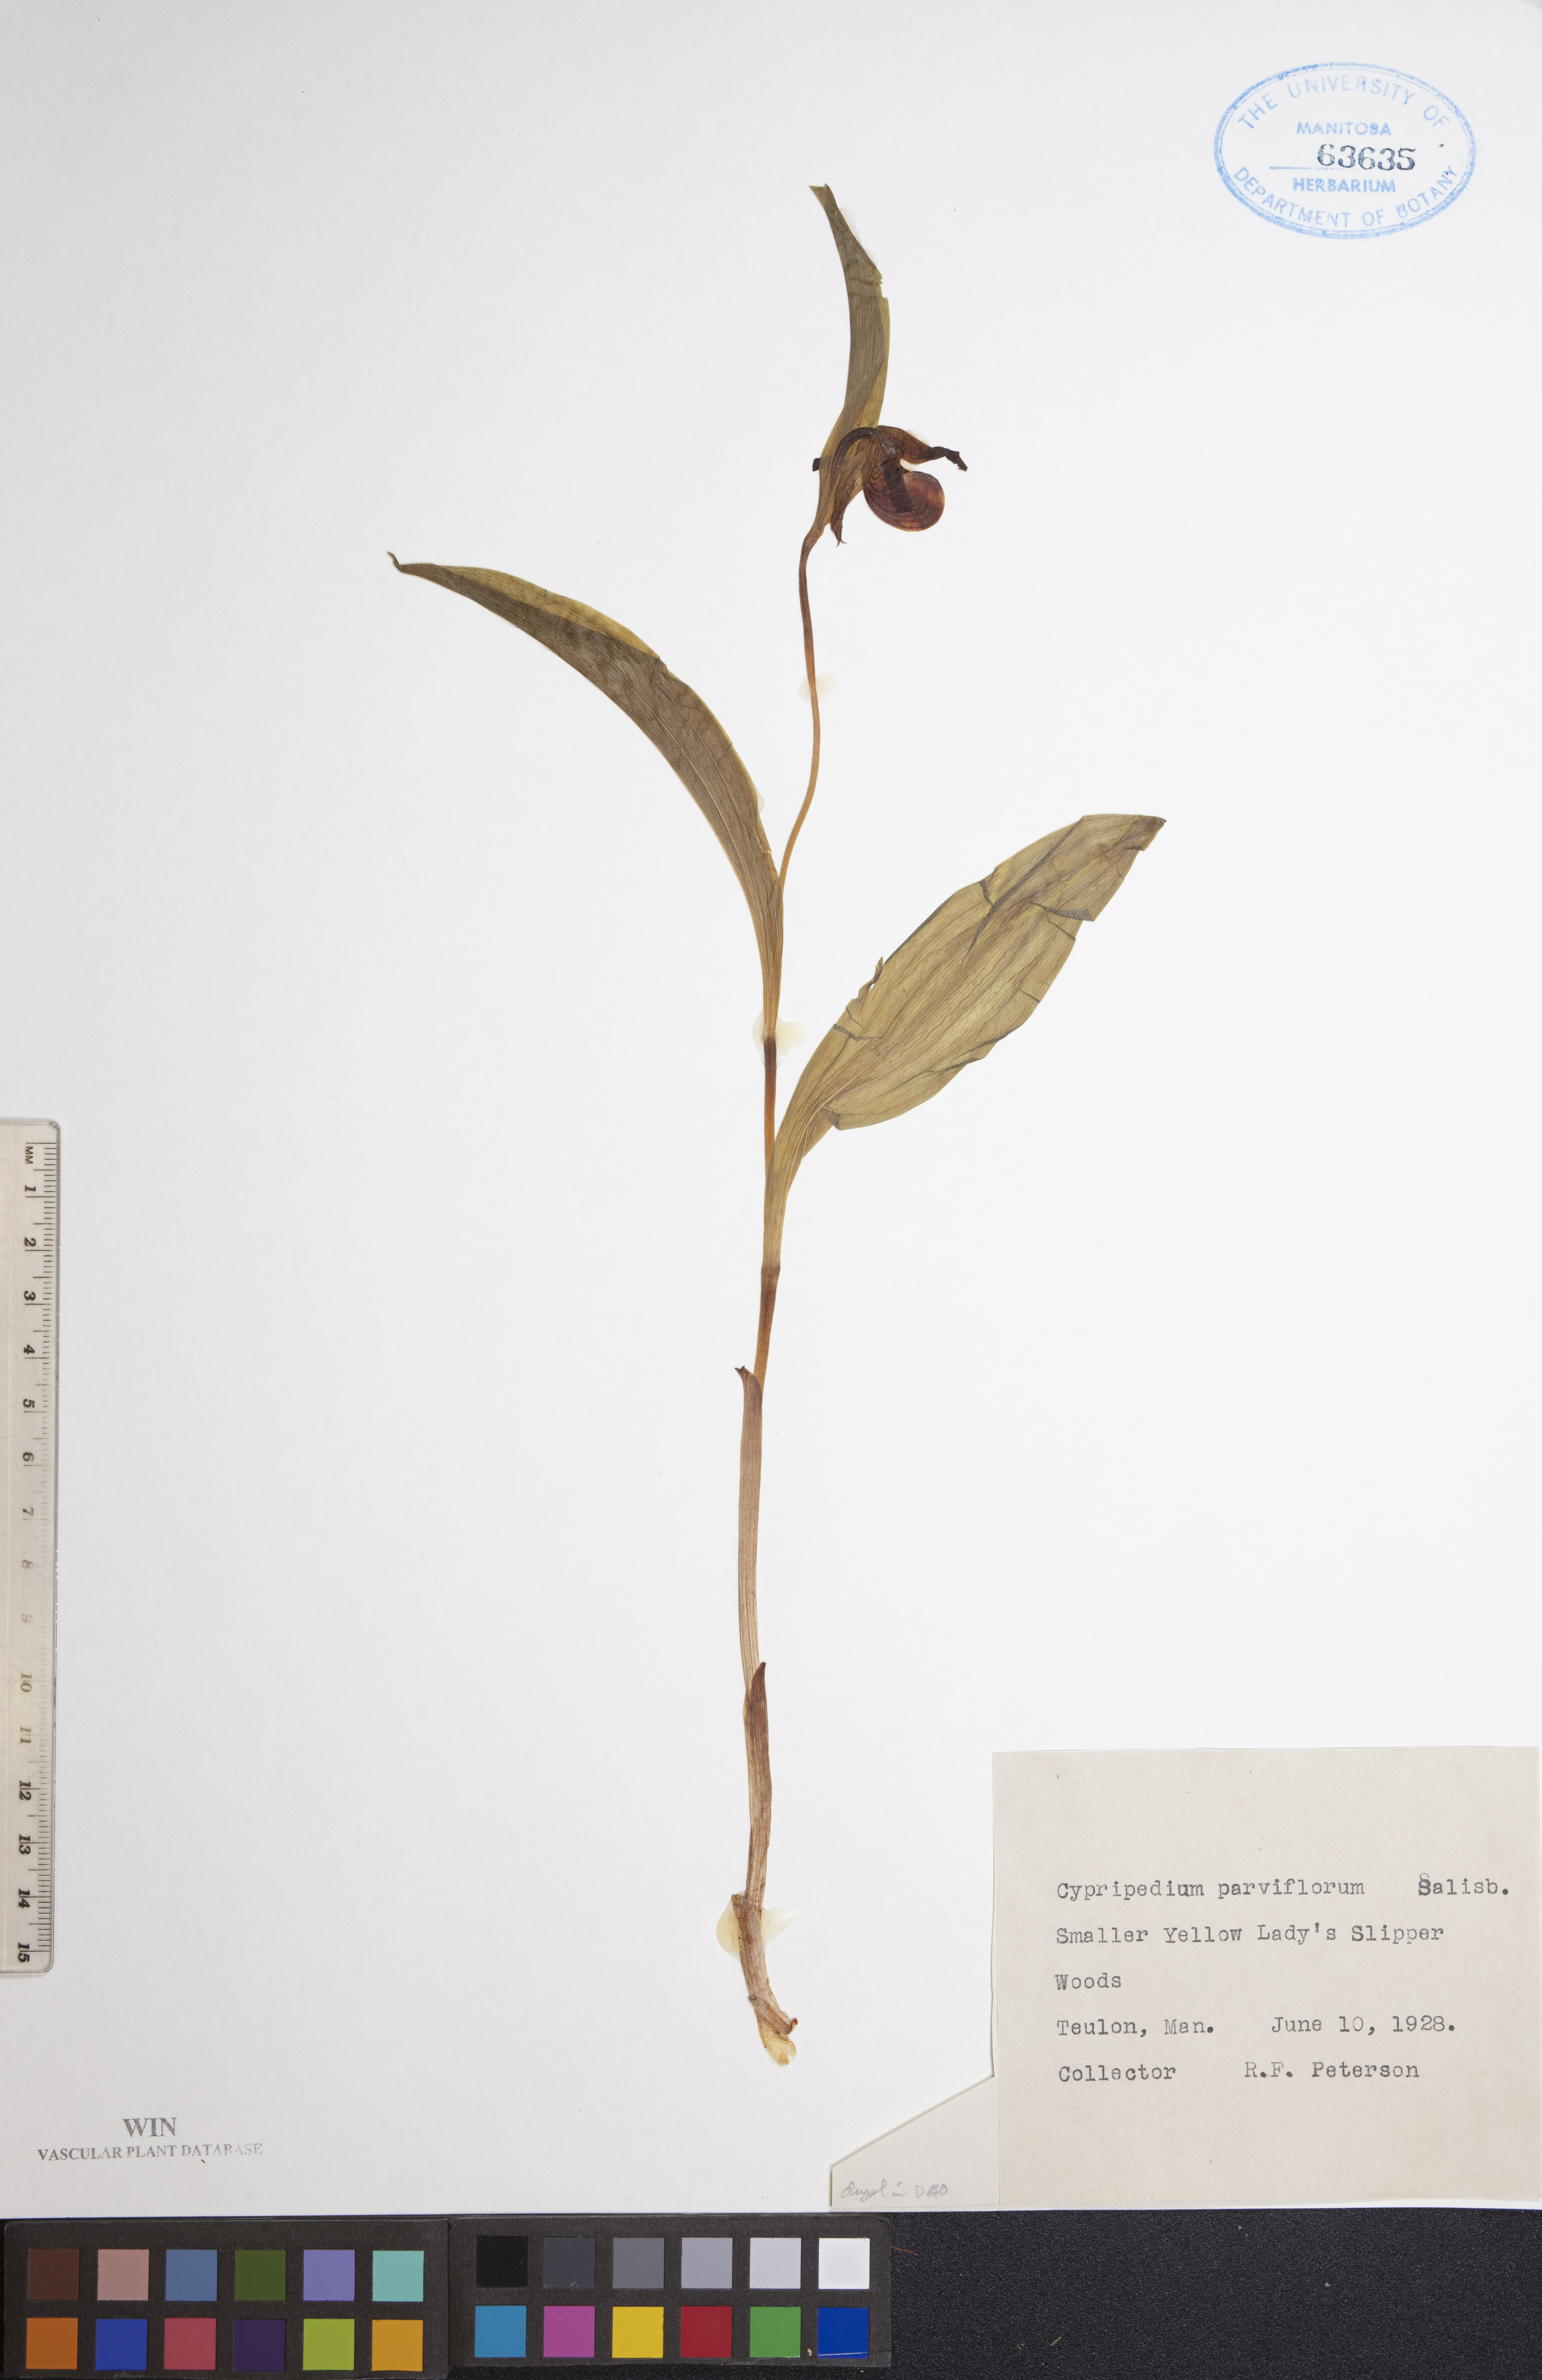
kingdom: Plantae
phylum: Tracheophyta
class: Liliopsida
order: Asparagales
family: Orchidaceae
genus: Cypripedium
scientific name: Cypripedium parviflorum
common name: American yellow lady's-slipper
